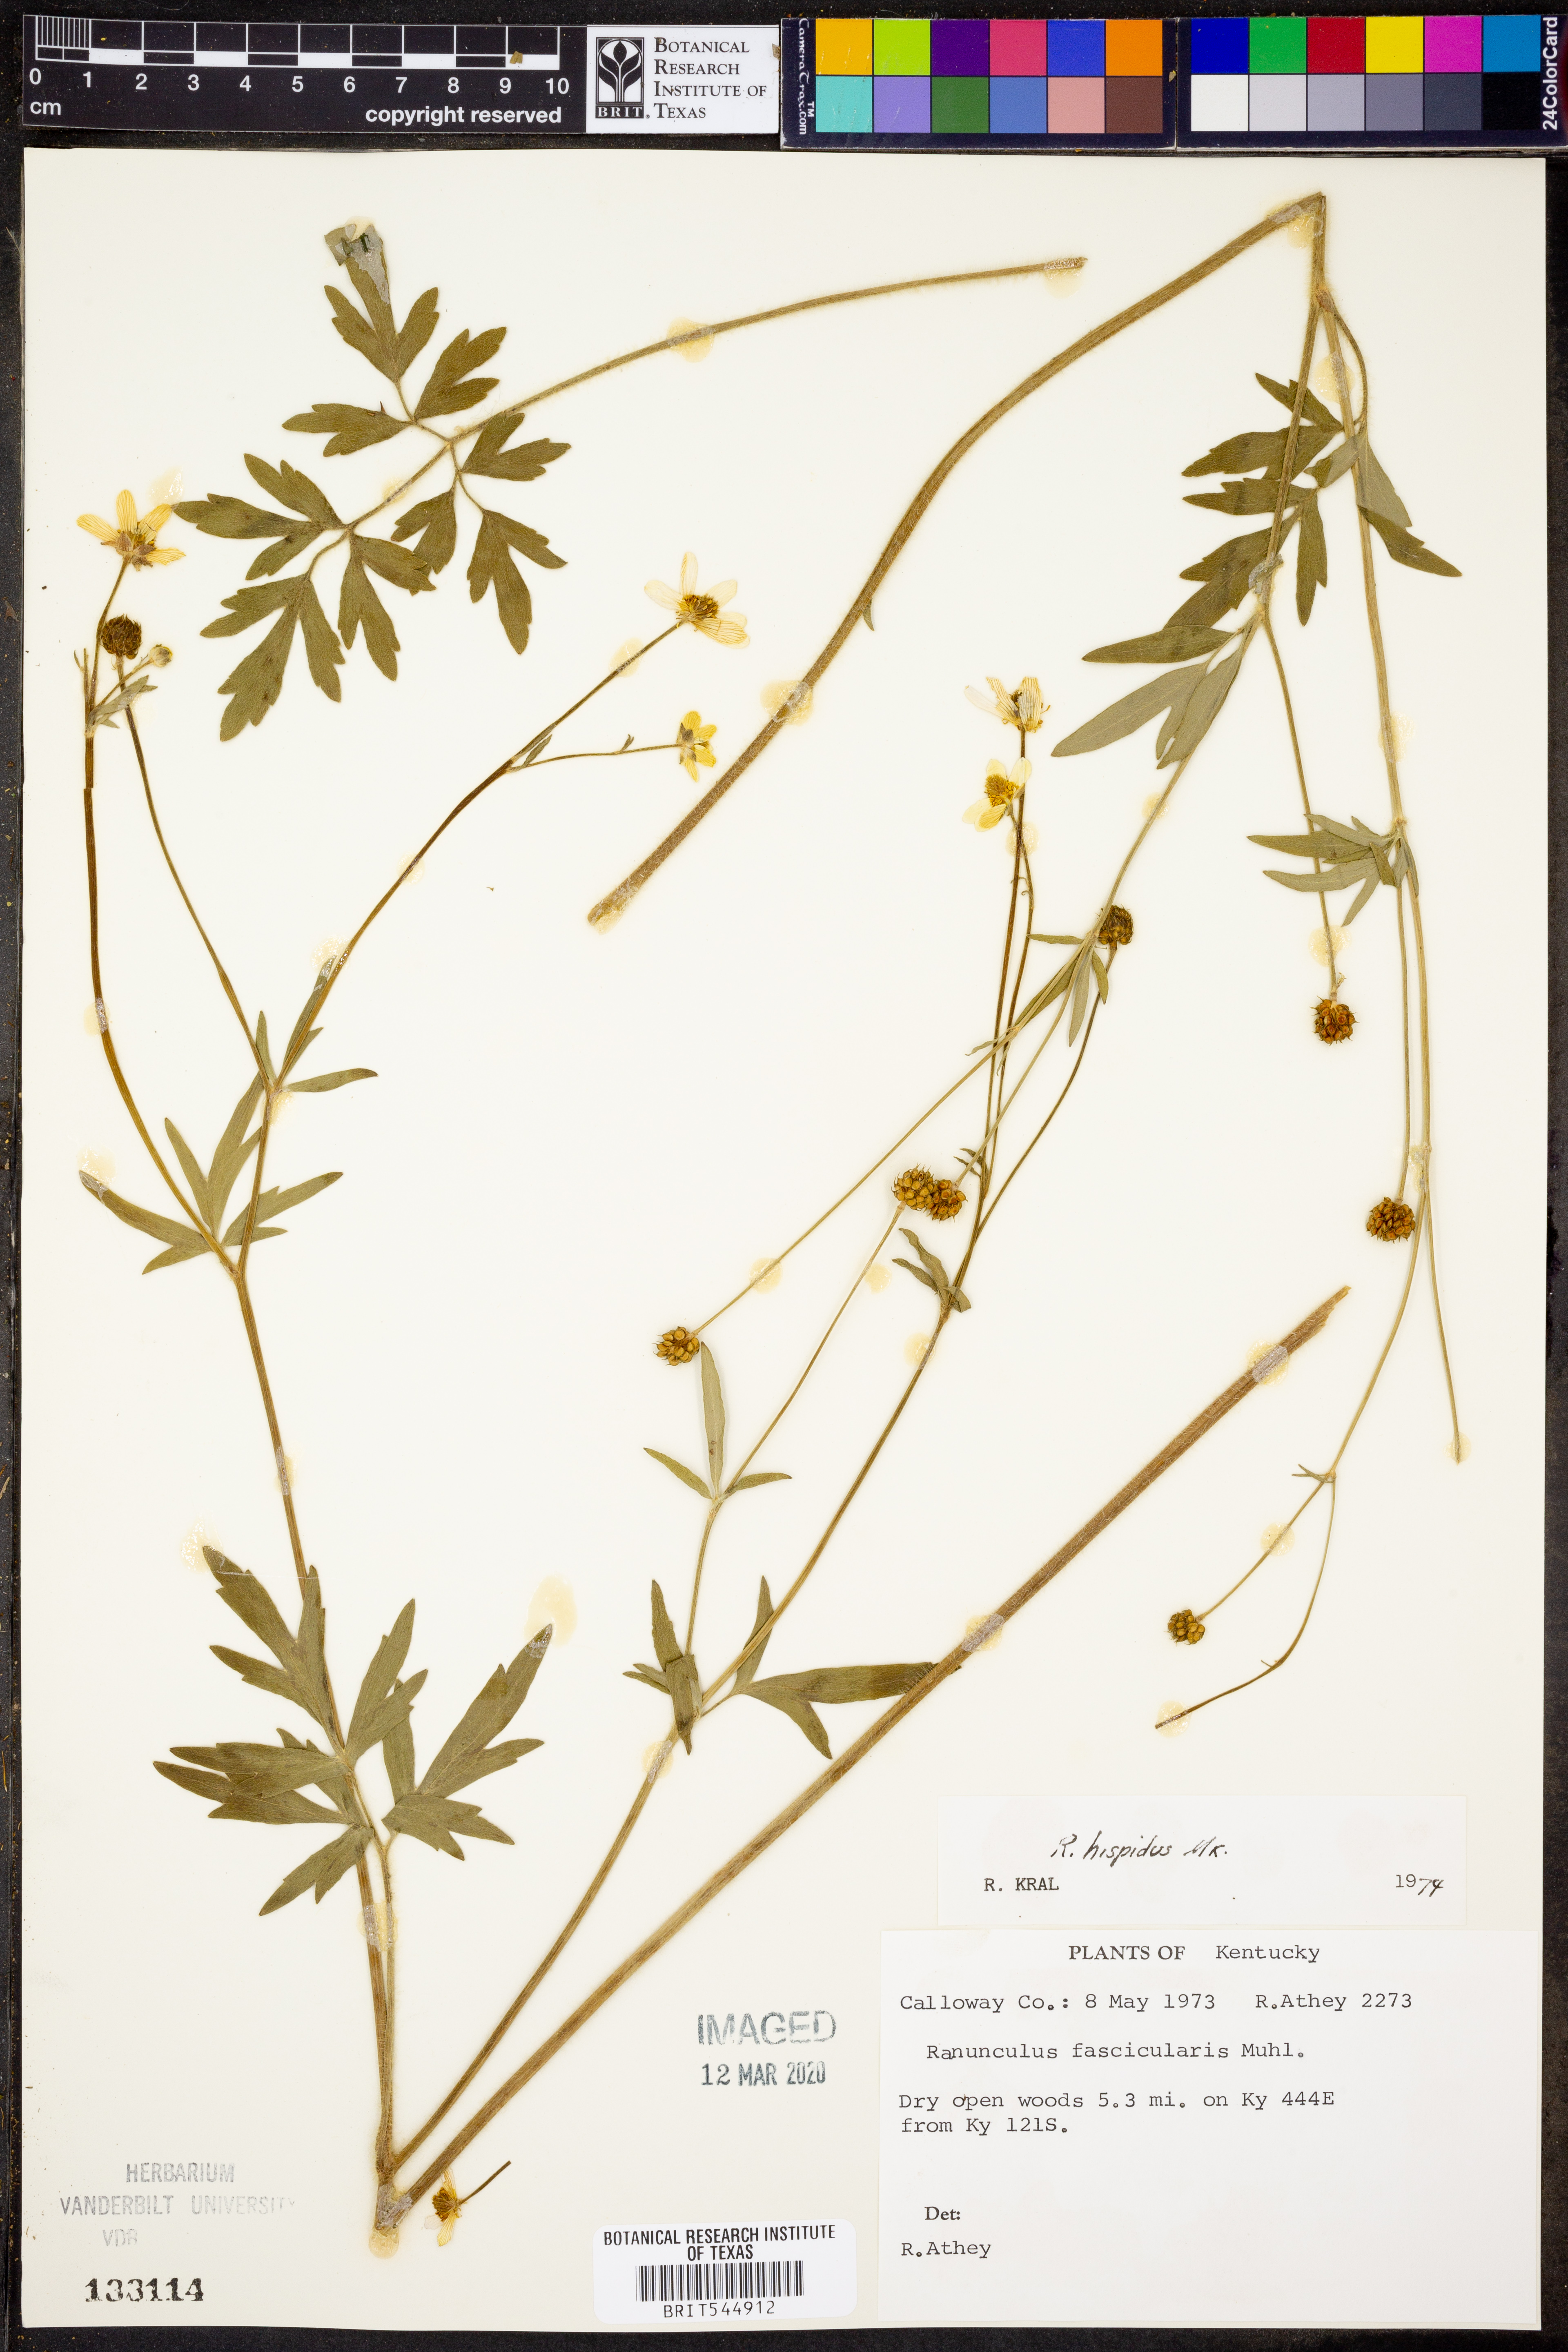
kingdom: Plantae
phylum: Tracheophyta
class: Magnoliopsida
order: Ranunculales
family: Ranunculaceae
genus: Ranunculus
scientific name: Ranunculus hispidus
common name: Bristly buttercup
